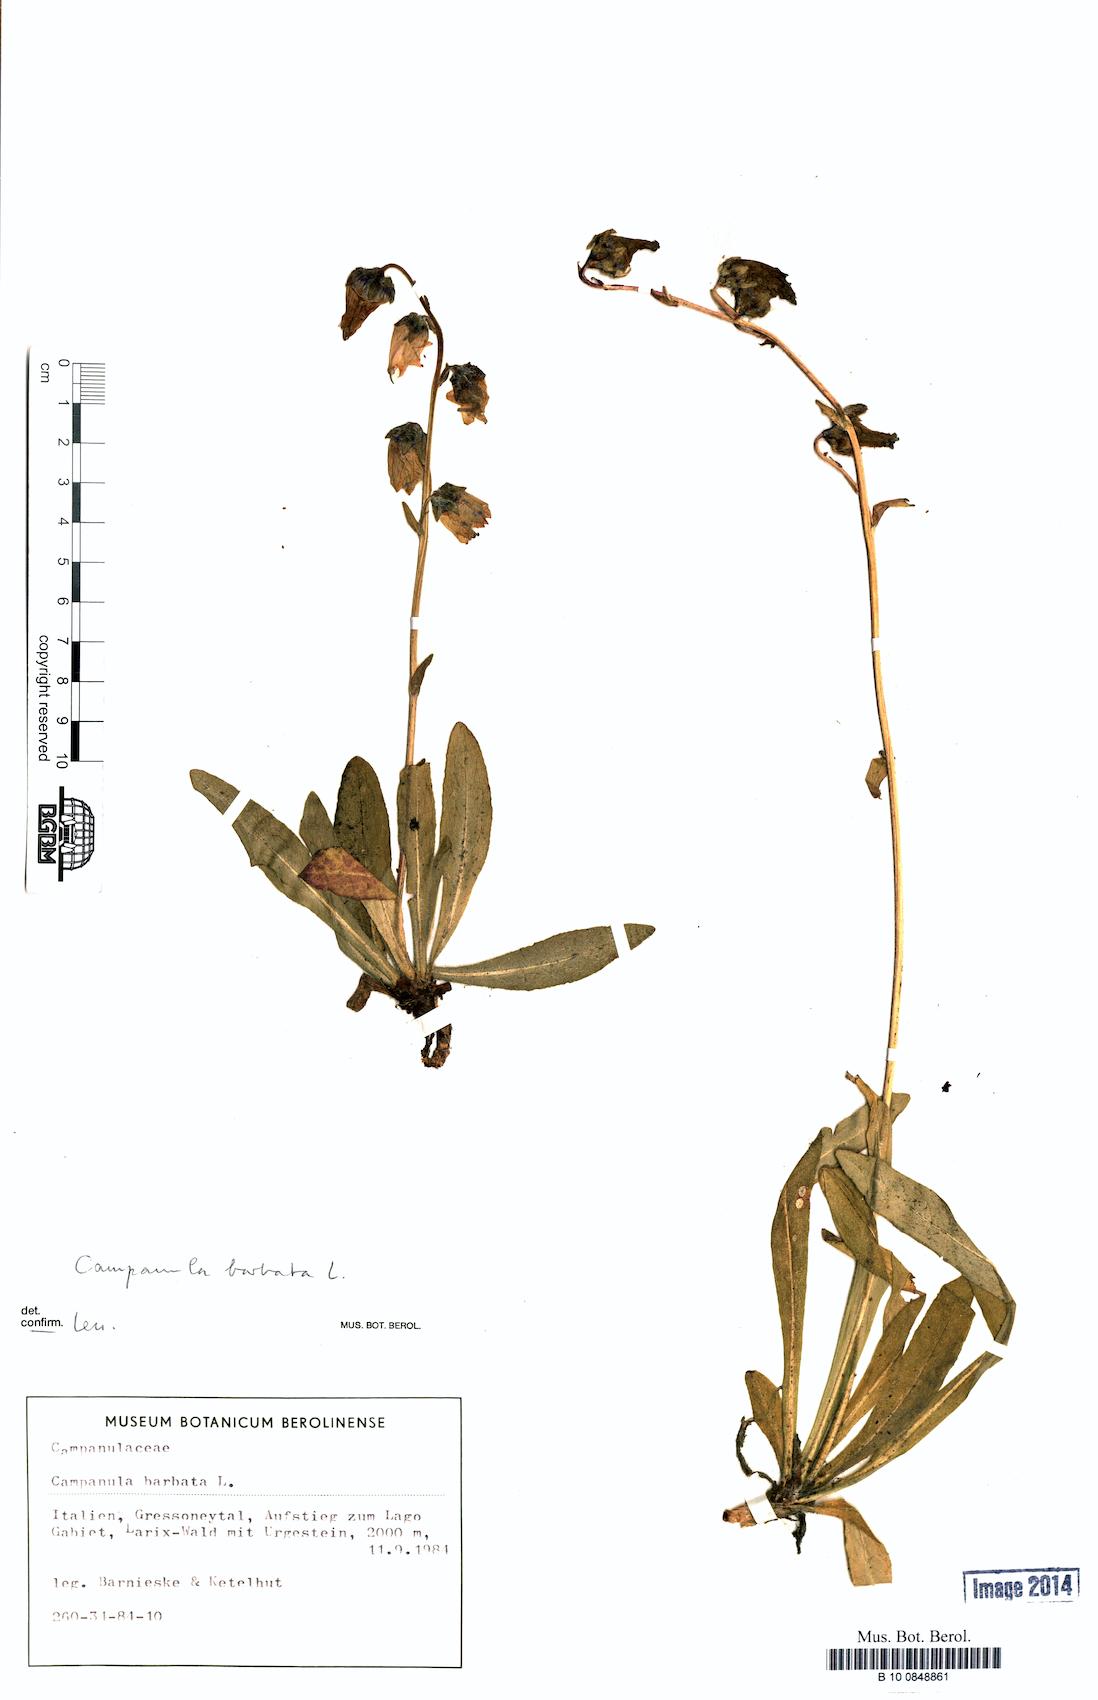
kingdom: Plantae
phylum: Tracheophyta
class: Magnoliopsida
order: Asterales
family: Campanulaceae
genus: Campanula
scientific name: Campanula barbata
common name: Bearded bellflower
